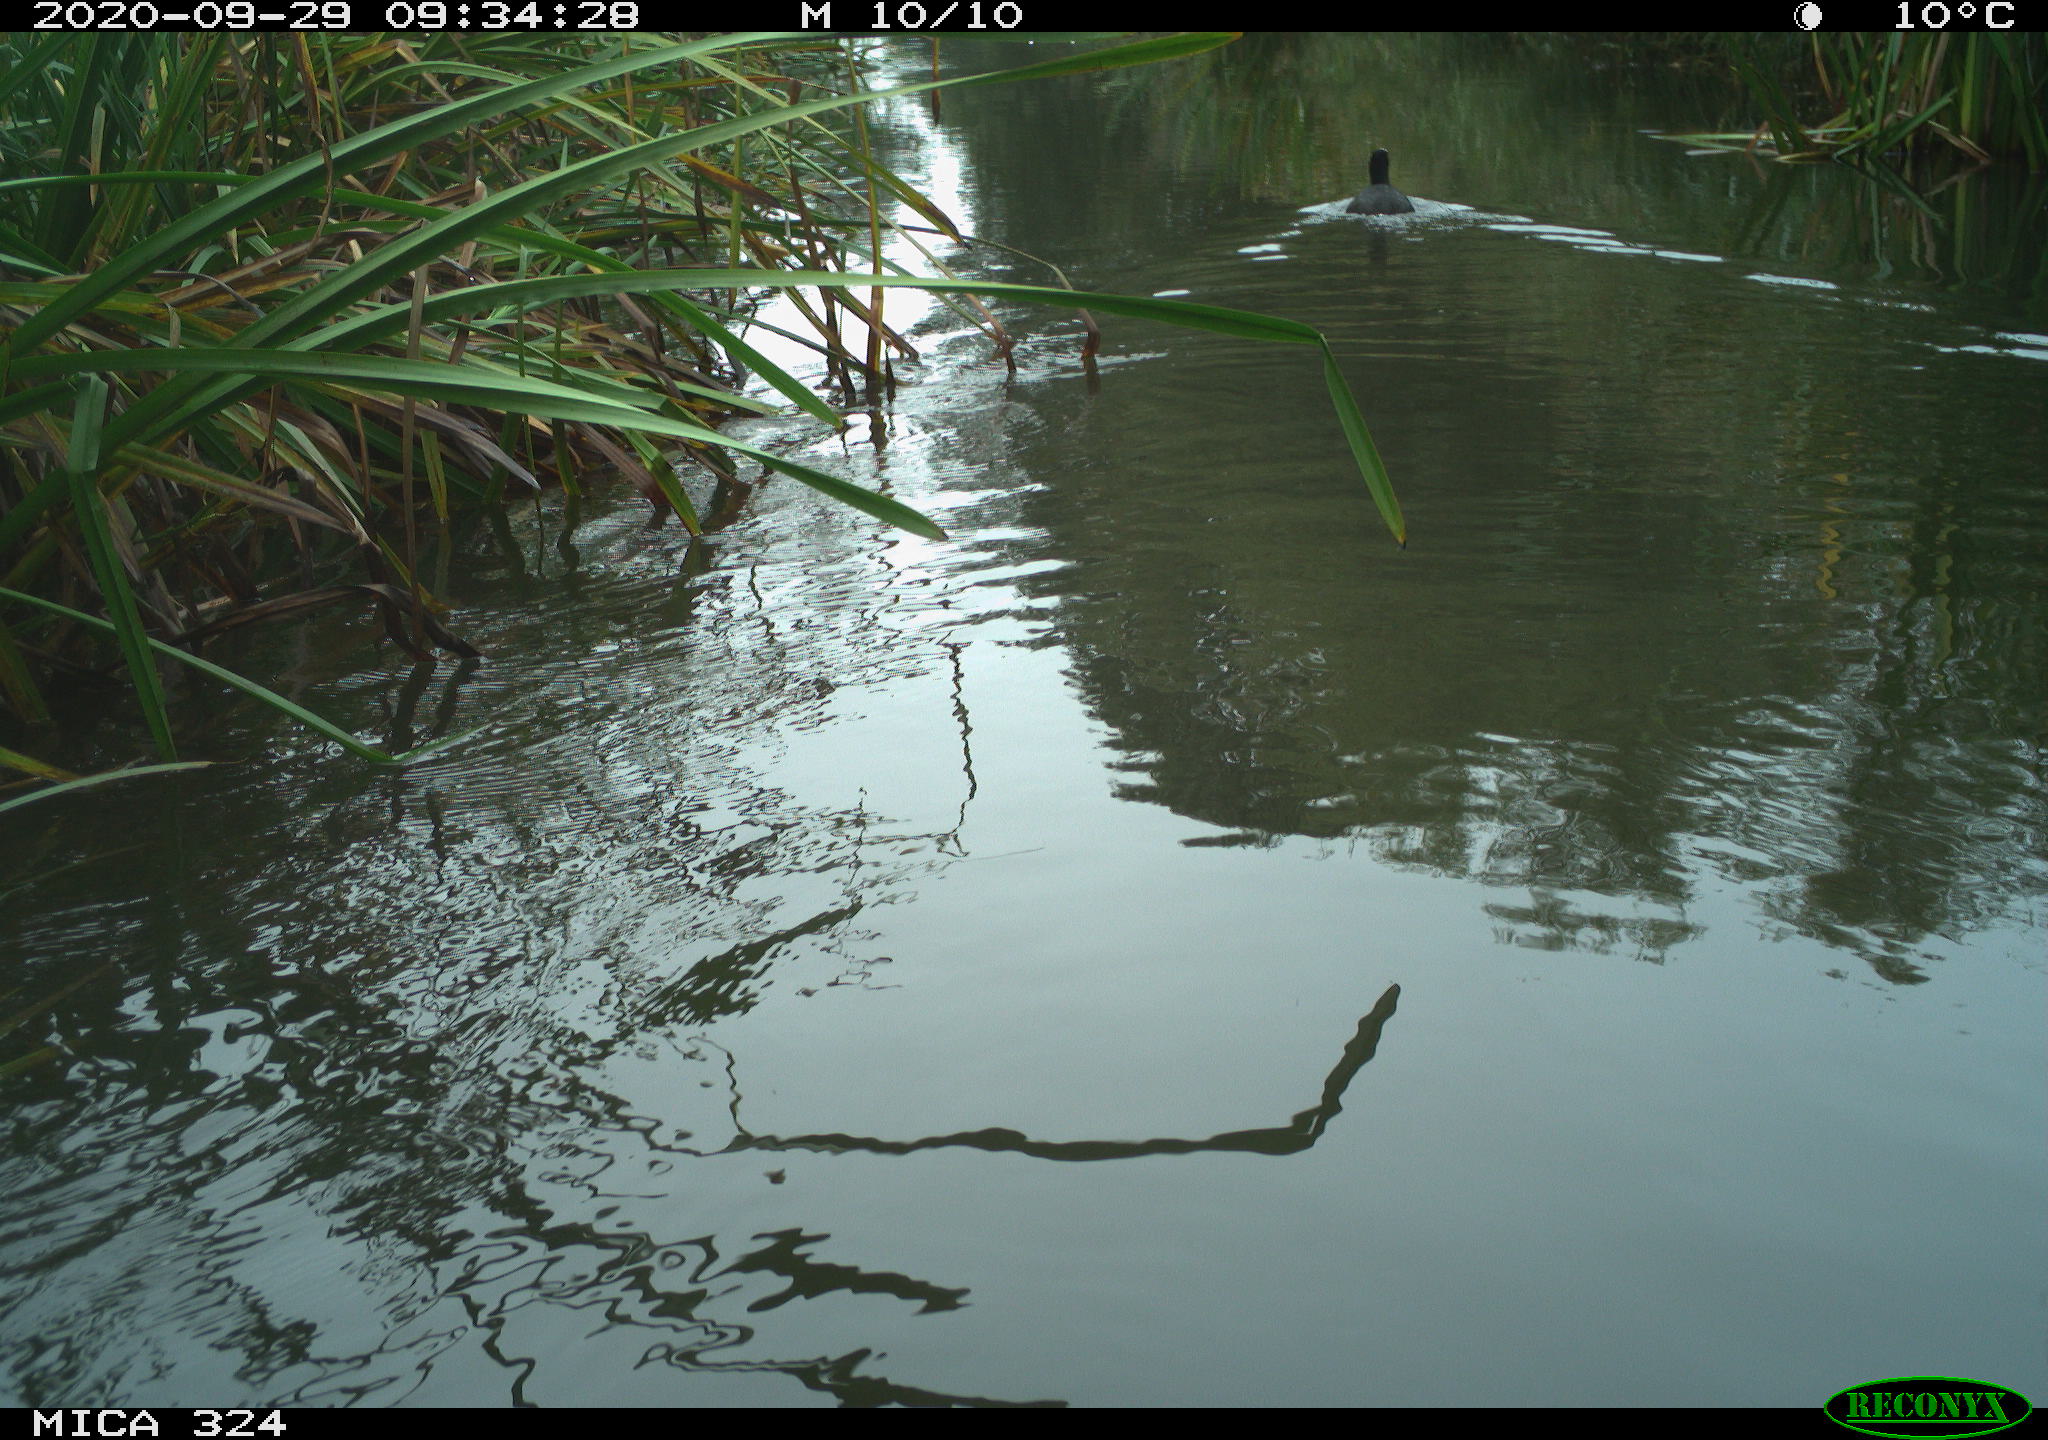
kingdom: Animalia
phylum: Chordata
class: Aves
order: Gruiformes
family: Rallidae
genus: Fulica
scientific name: Fulica atra
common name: Eurasian coot
